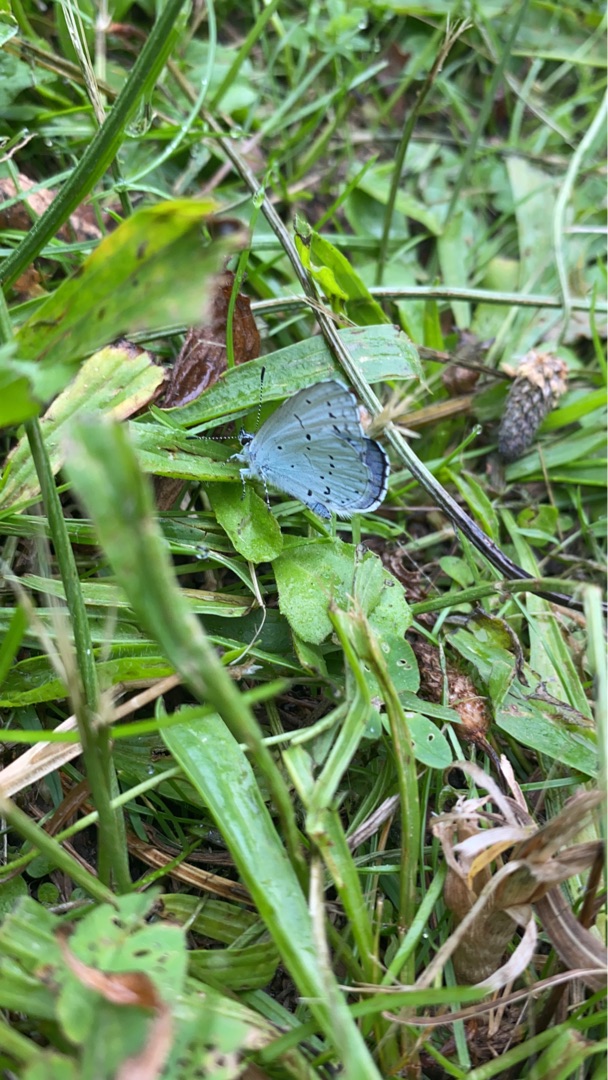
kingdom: Animalia
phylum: Arthropoda
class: Insecta
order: Lepidoptera
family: Lycaenidae
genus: Celastrina
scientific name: Celastrina argiolus
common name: Skovblåfugl
